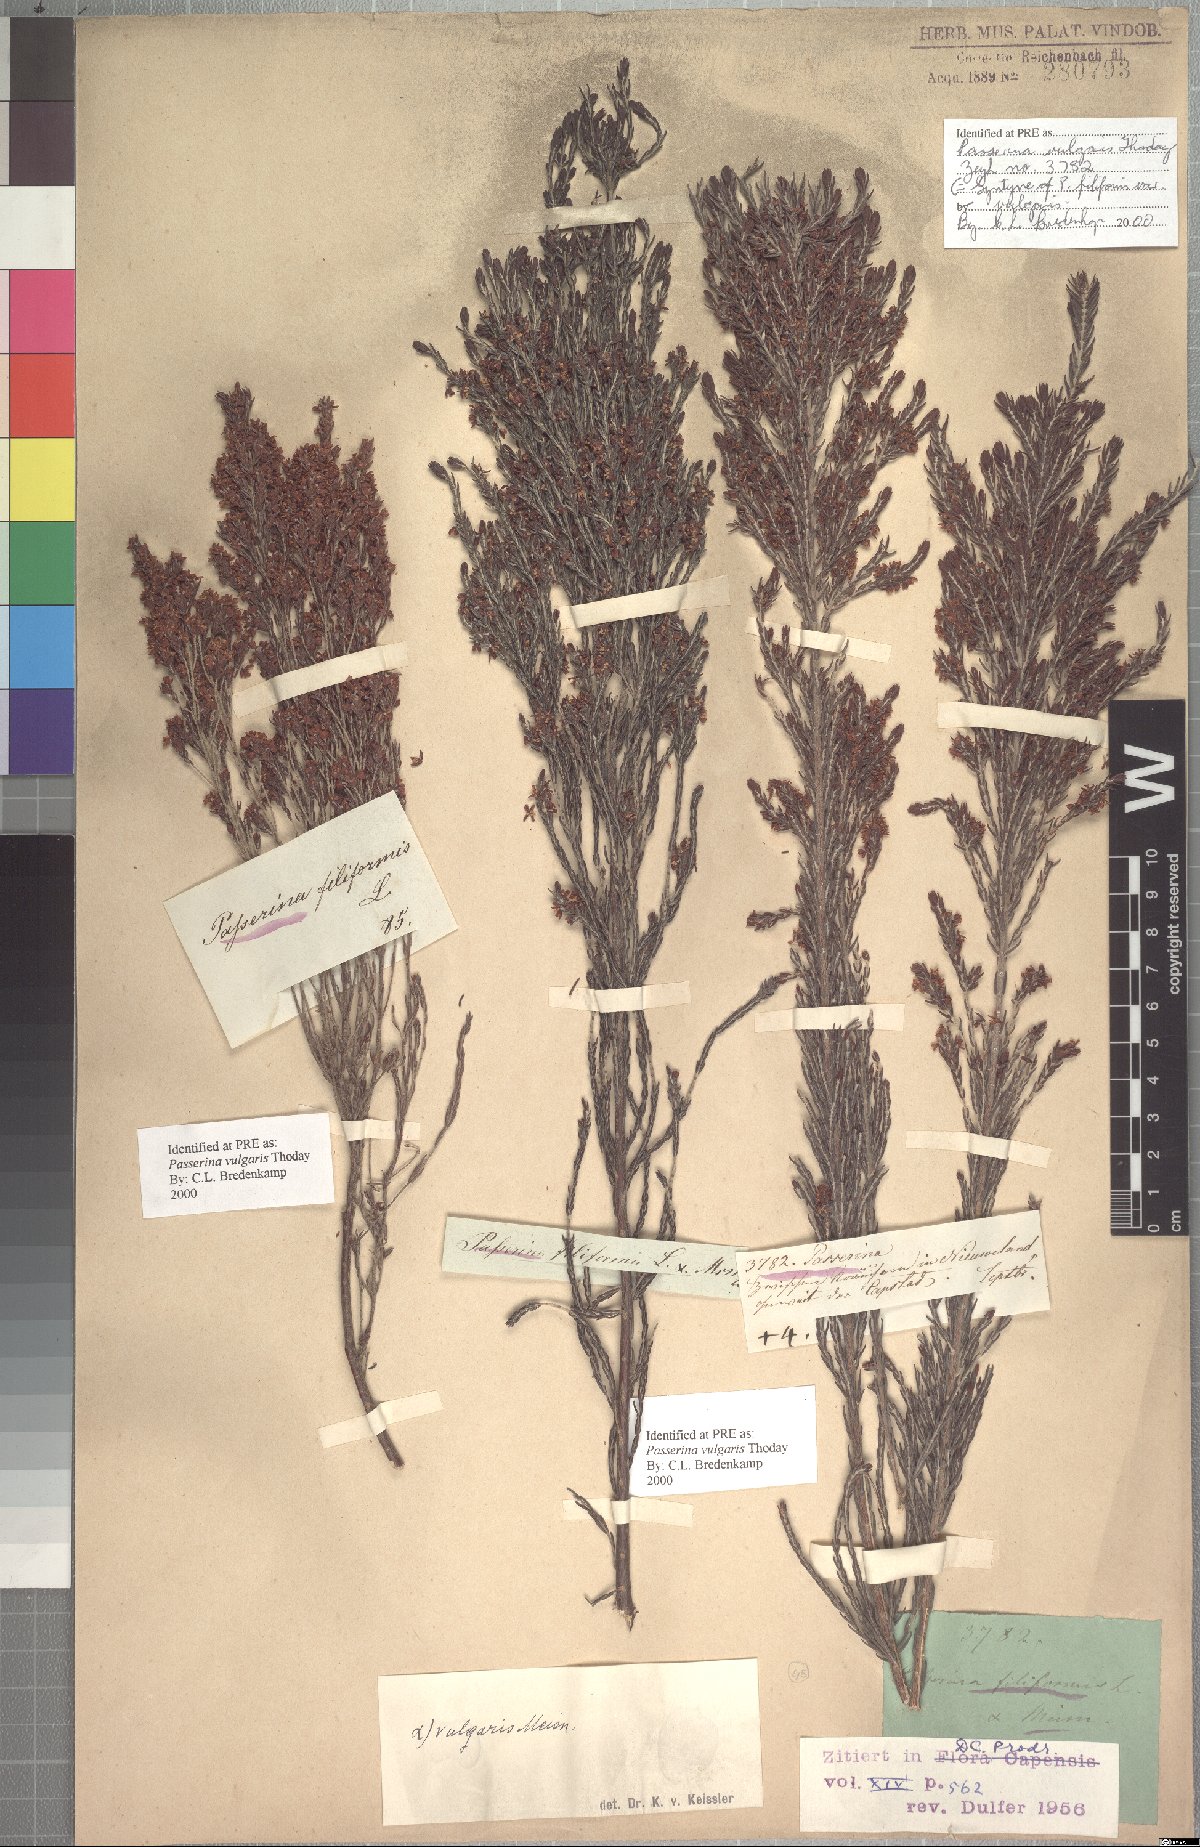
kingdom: Plantae
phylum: Tracheophyta
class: Magnoliopsida
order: Malvales
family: Thymelaeaceae
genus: Passerina
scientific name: Passerina corymbosa
